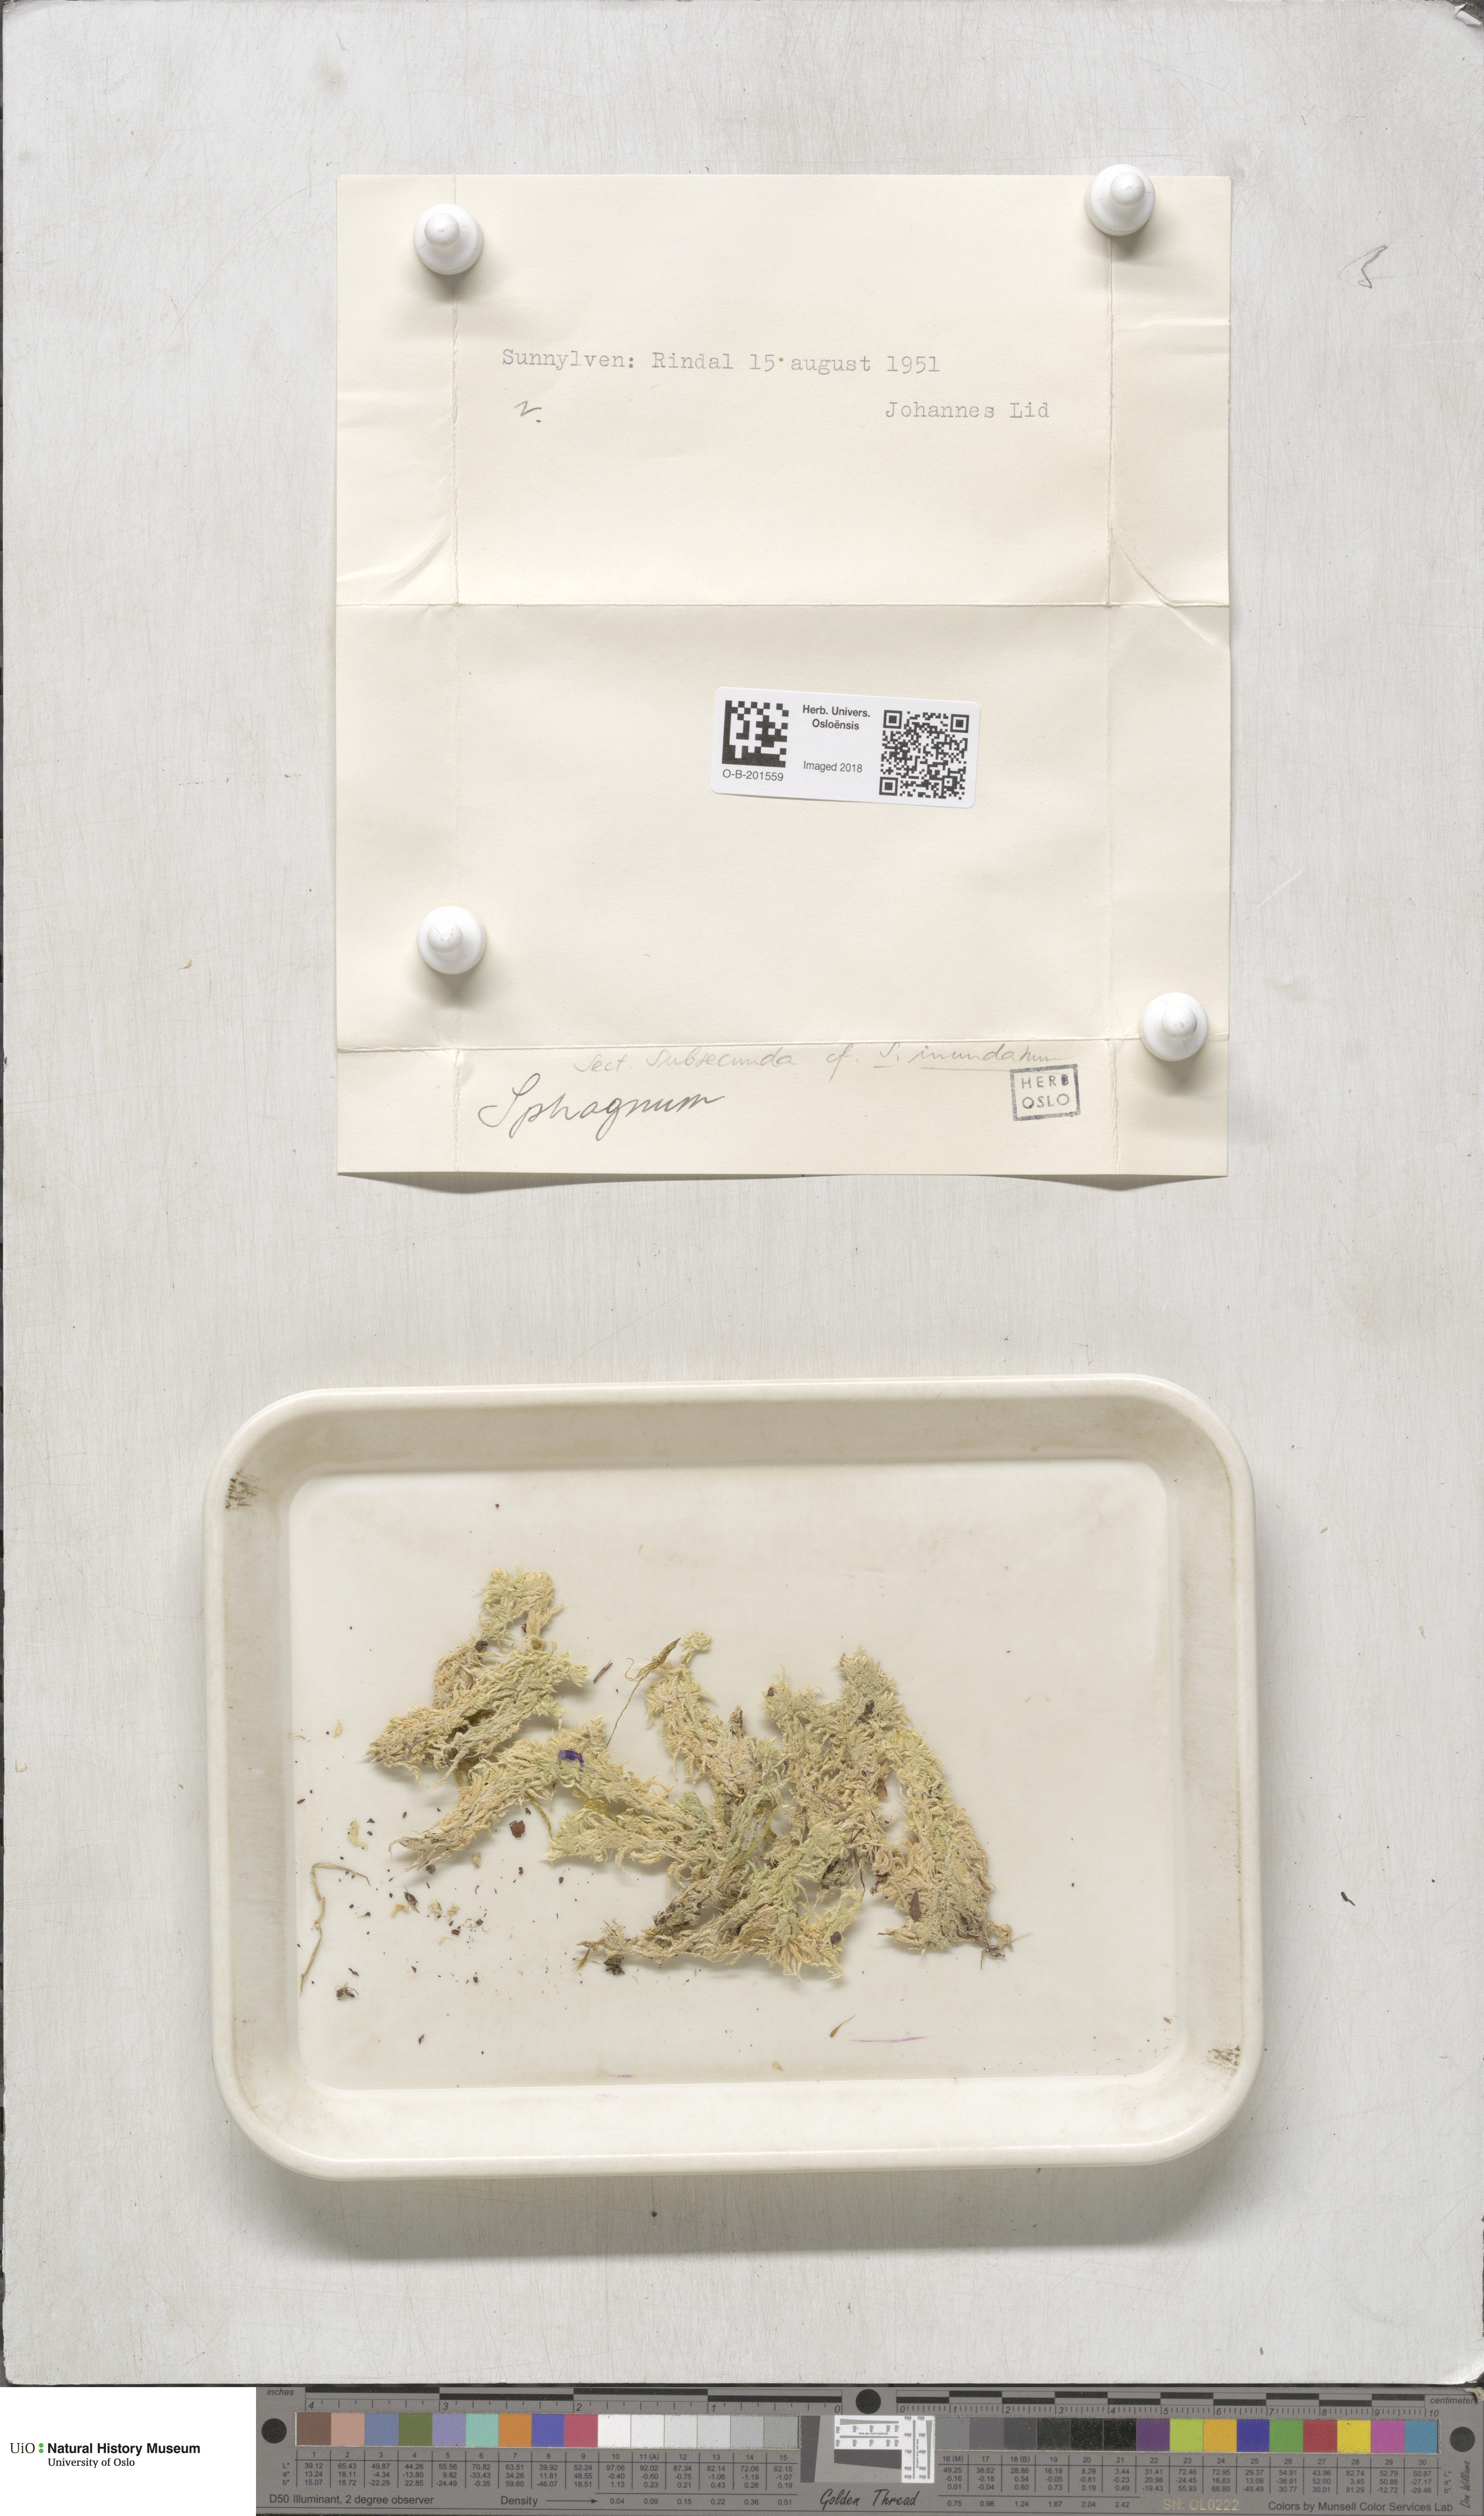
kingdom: Plantae
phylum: Bryophyta
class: Sphagnopsida
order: Sphagnales
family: Sphagnaceae
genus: Sphagnum
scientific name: Sphagnum inundatum
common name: Lesser cow-horn bog-moss
